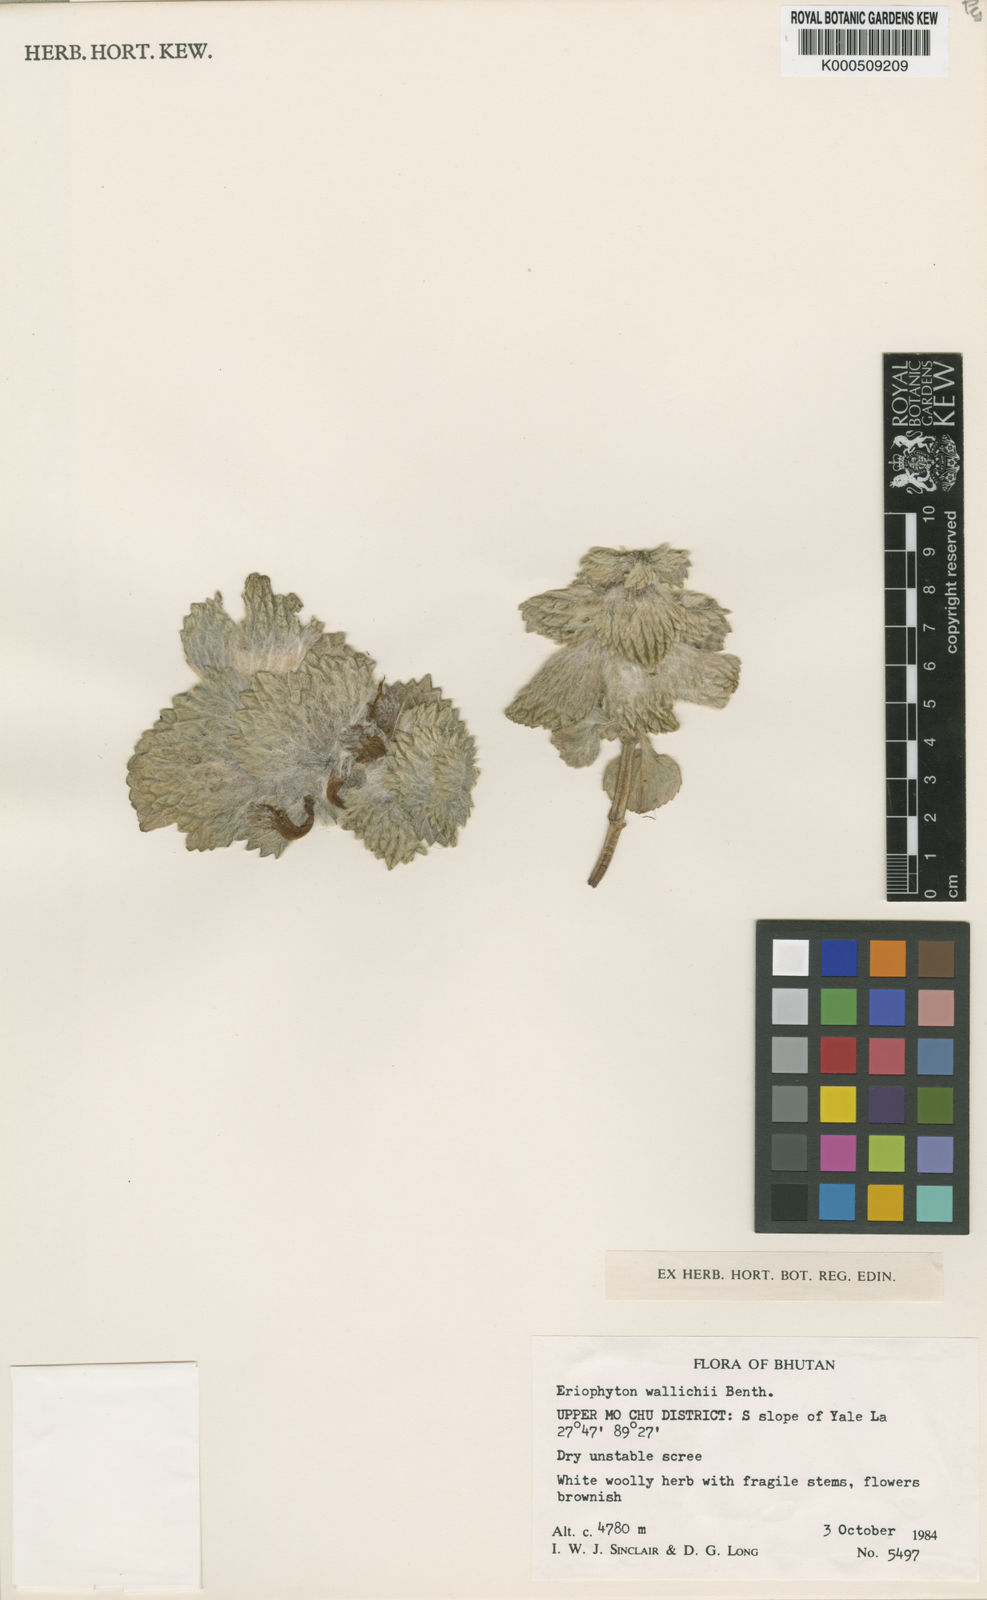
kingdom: Plantae
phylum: Tracheophyta
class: Magnoliopsida
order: Lamiales
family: Lamiaceae
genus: Eriophyton
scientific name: Eriophyton wallichii
